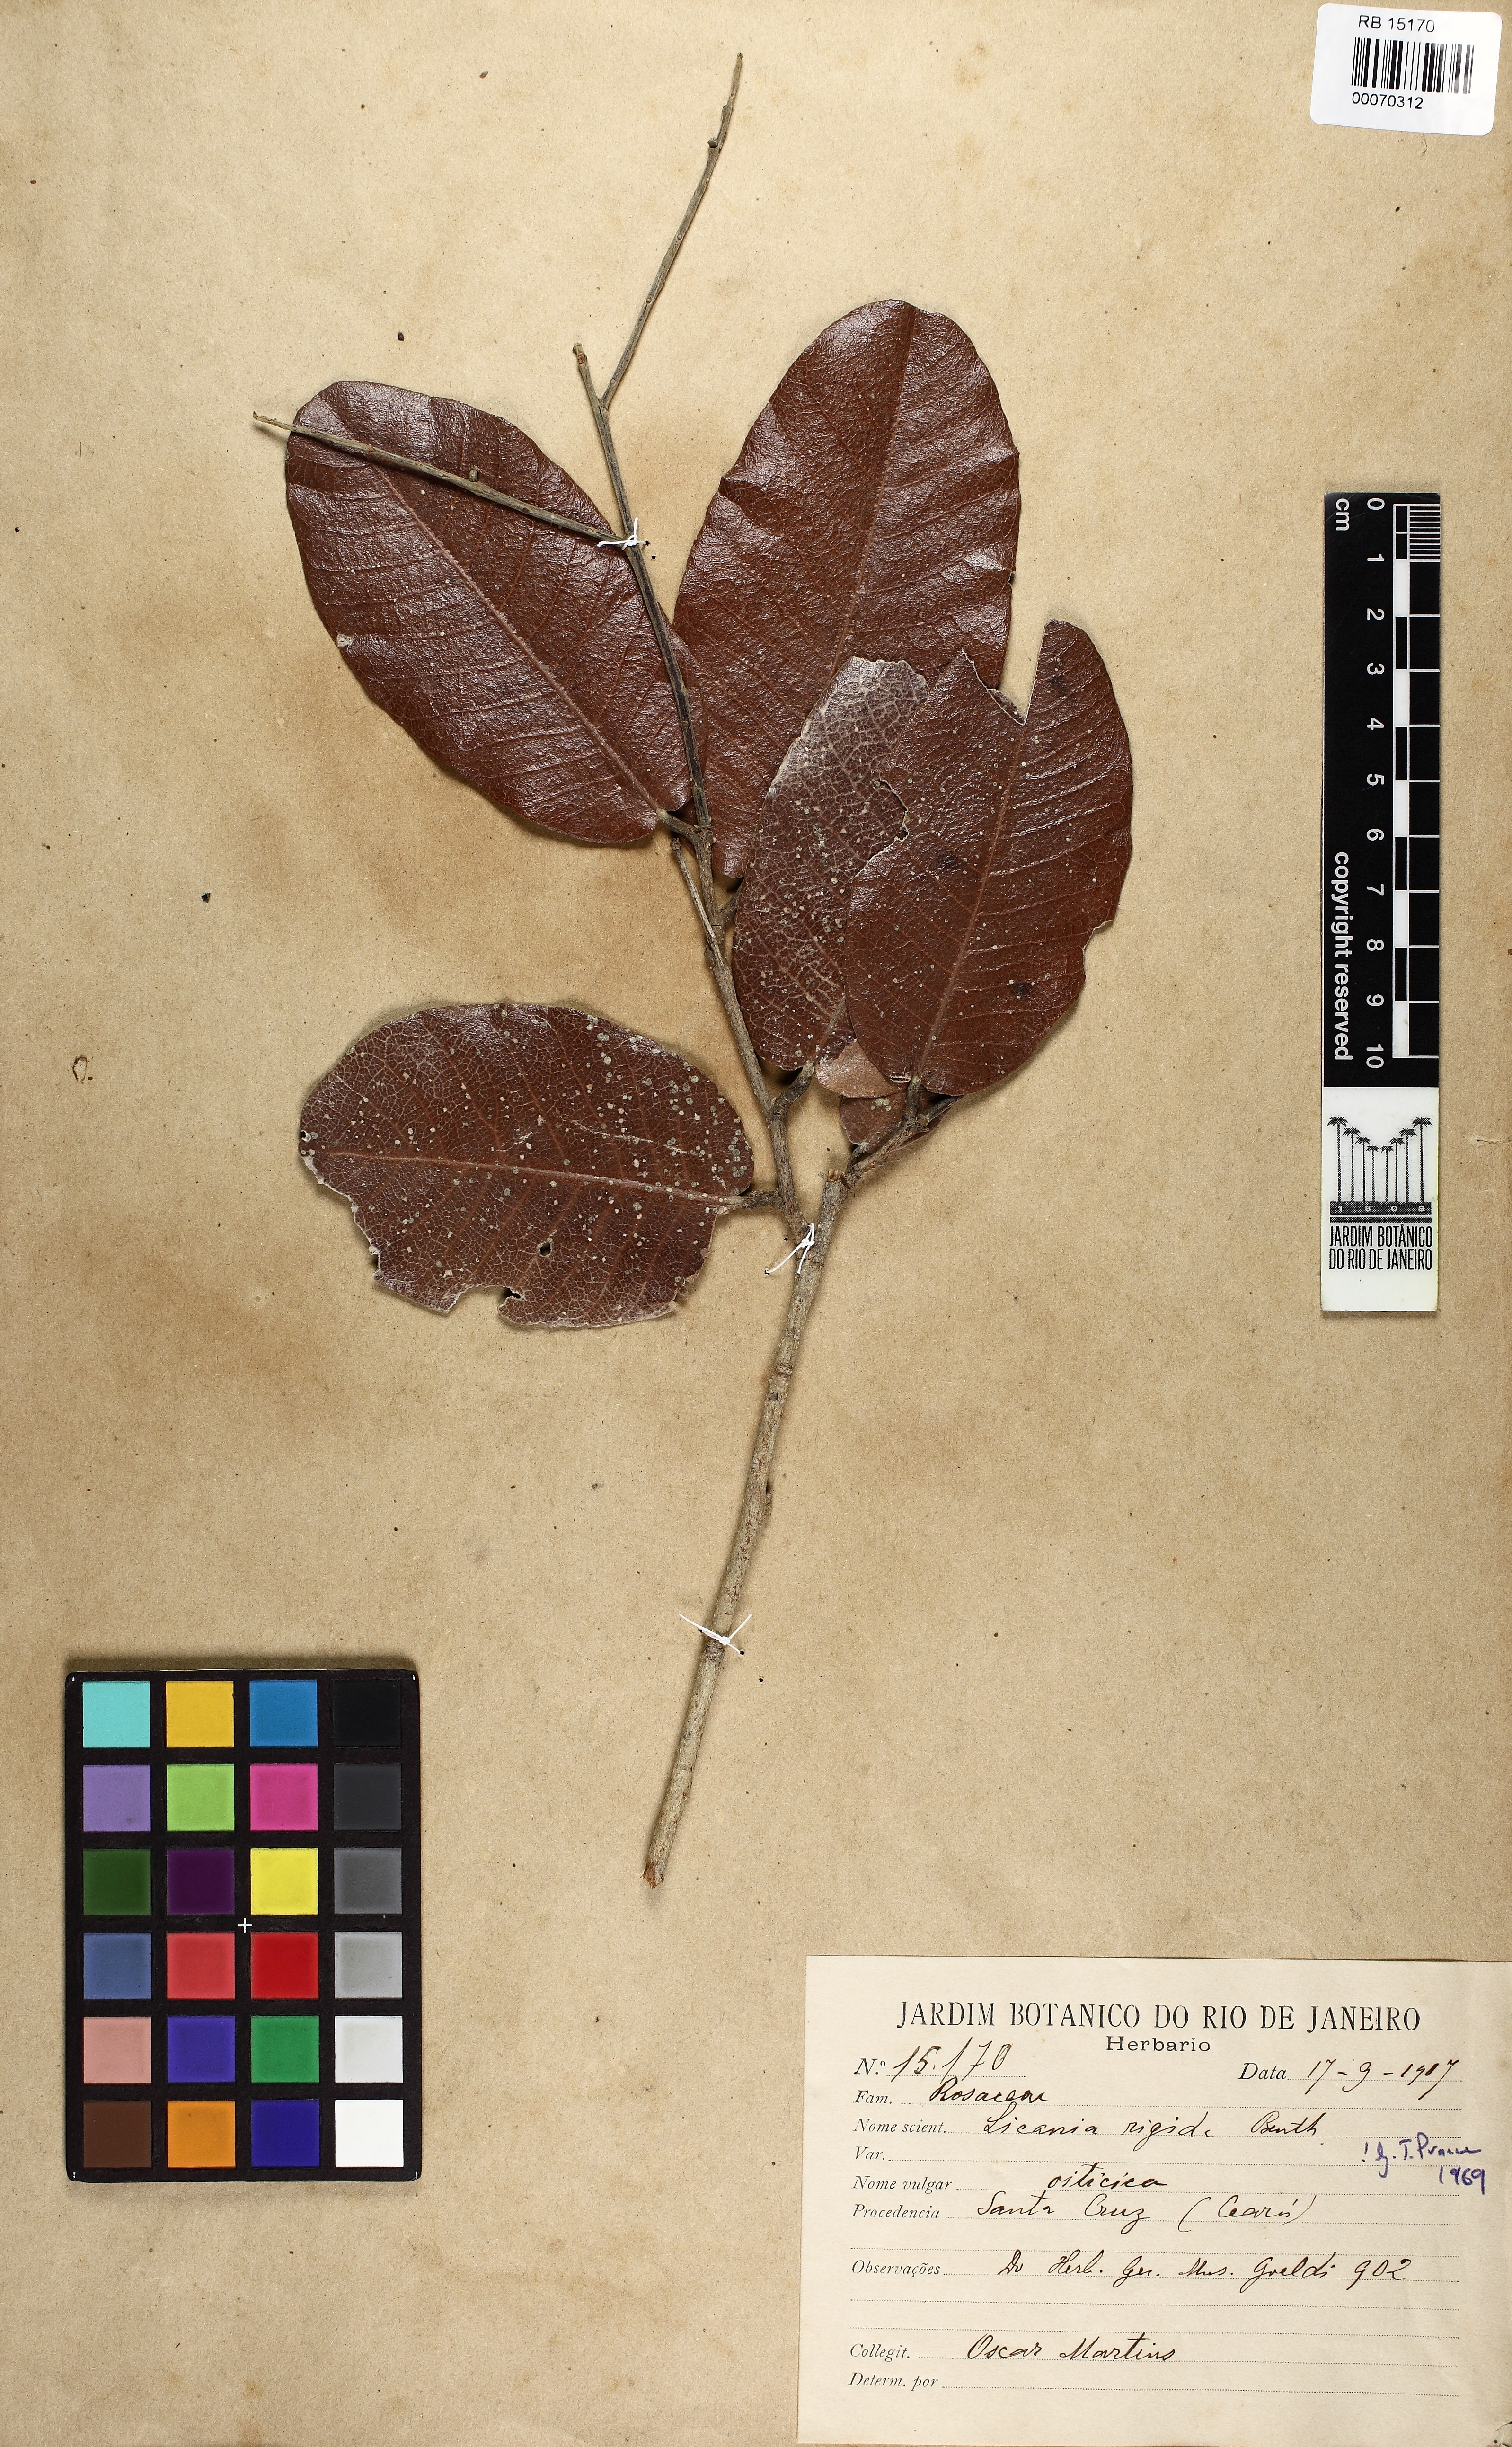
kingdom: Plantae
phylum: Tracheophyta
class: Magnoliopsida
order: Malpighiales
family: Chrysobalanaceae
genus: Microdesmia
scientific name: Microdesmia rigida
